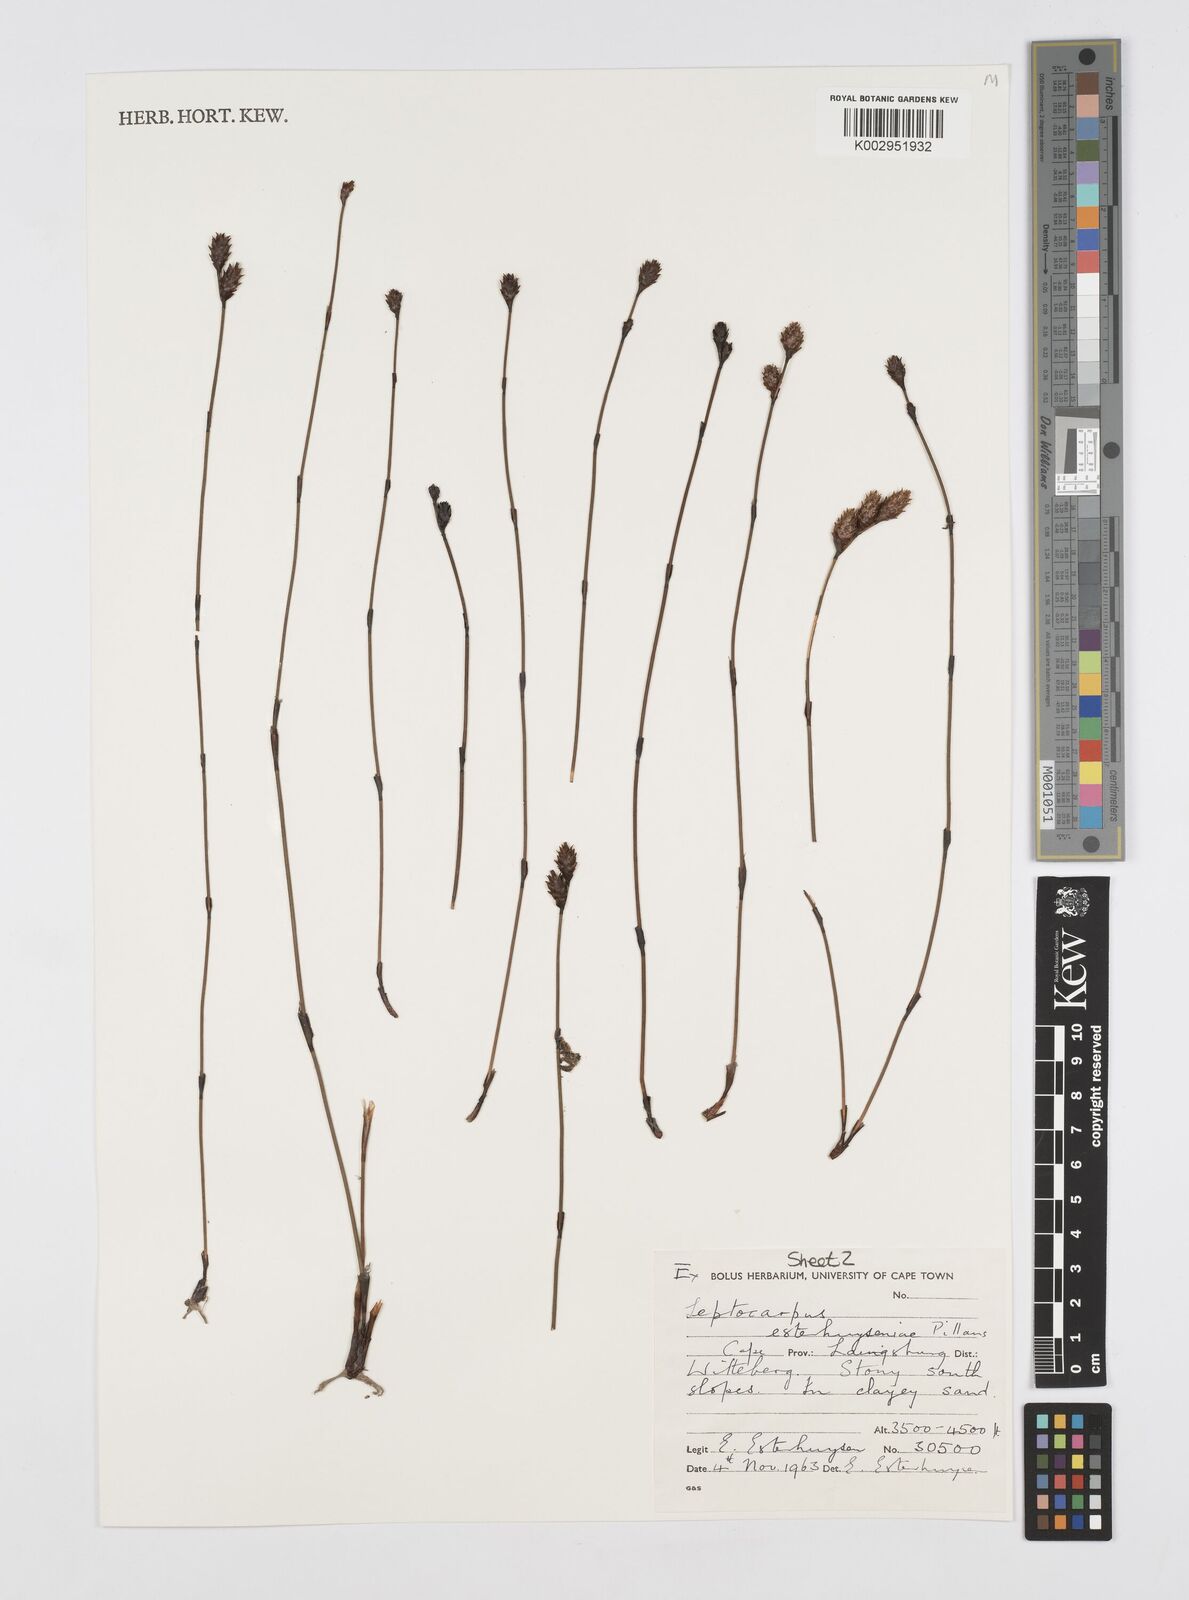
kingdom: Plantae
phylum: Tracheophyta
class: Liliopsida
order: Poales
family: Restionaceae
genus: Restio
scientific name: Restio esterhuyseniae
